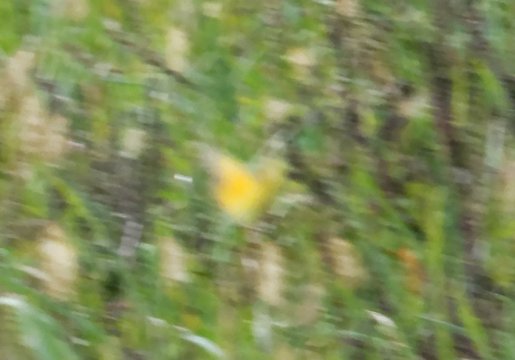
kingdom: Animalia
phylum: Arthropoda
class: Insecta
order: Lepidoptera
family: Pieridae
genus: Colias
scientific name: Colias eurytheme
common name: Orange Sulphur
